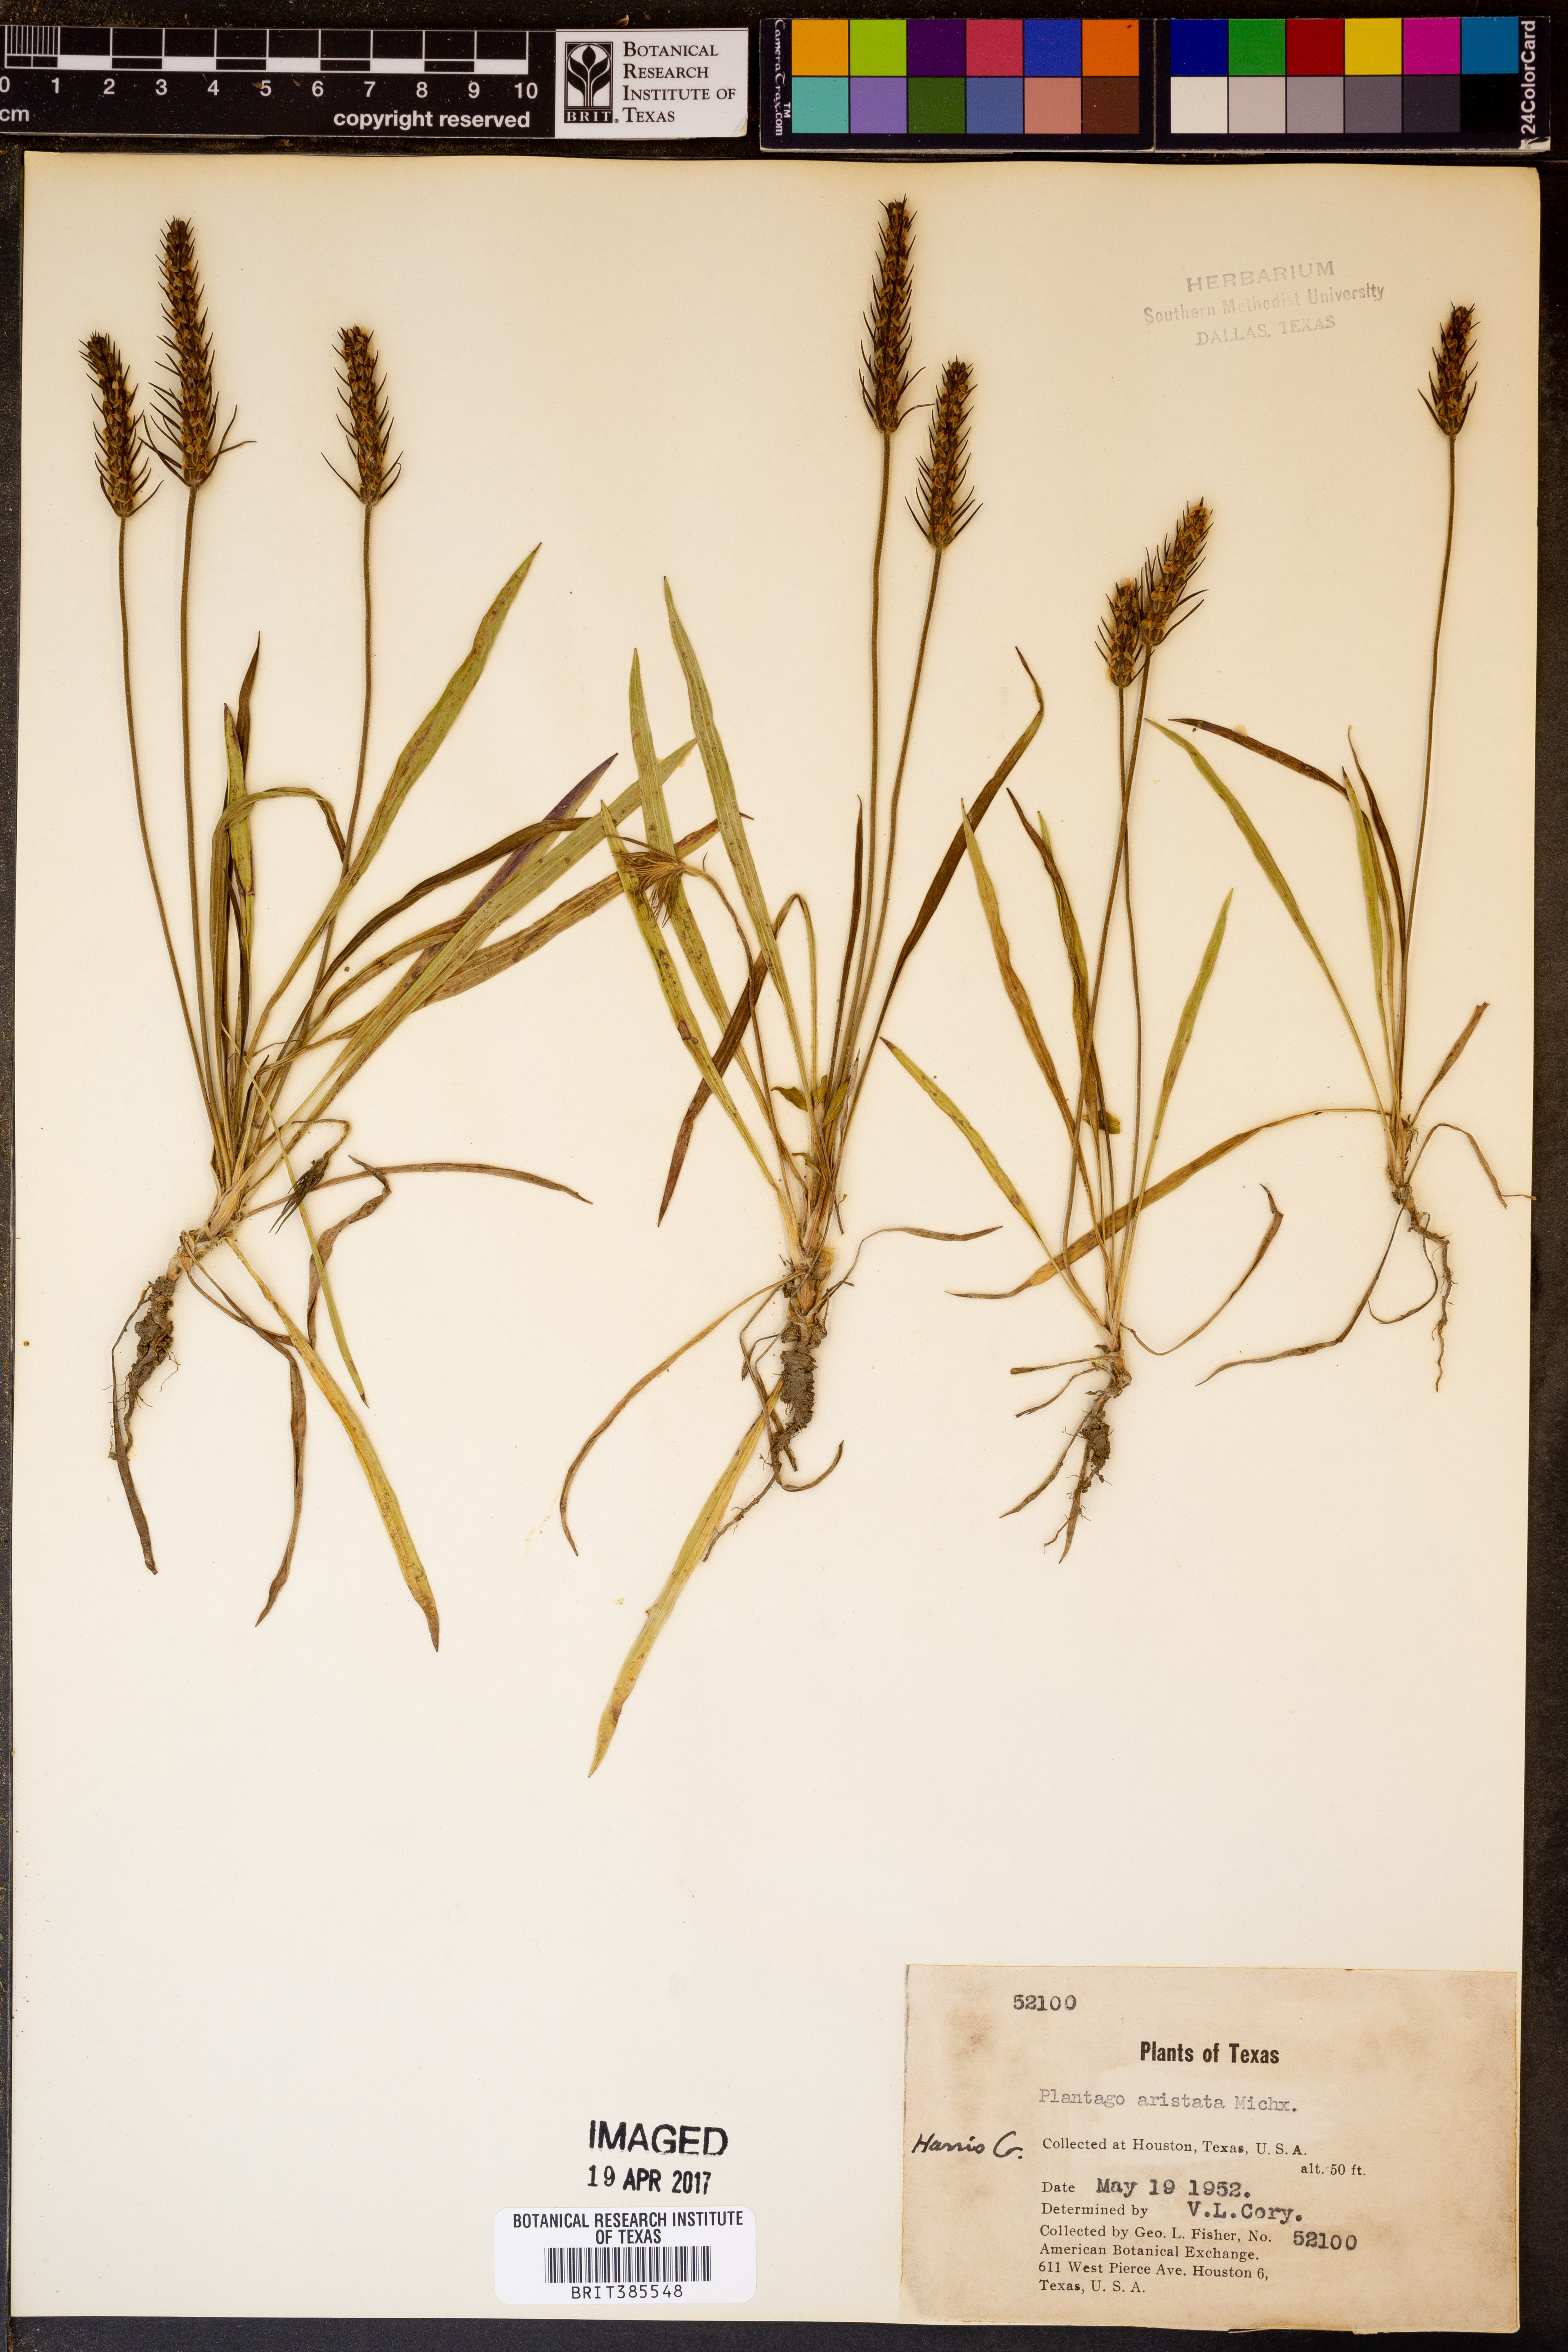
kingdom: Plantae
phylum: Tracheophyta
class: Magnoliopsida
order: Lamiales
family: Plantaginaceae
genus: Plantago
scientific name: Plantago aristata
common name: Bracted plantain
